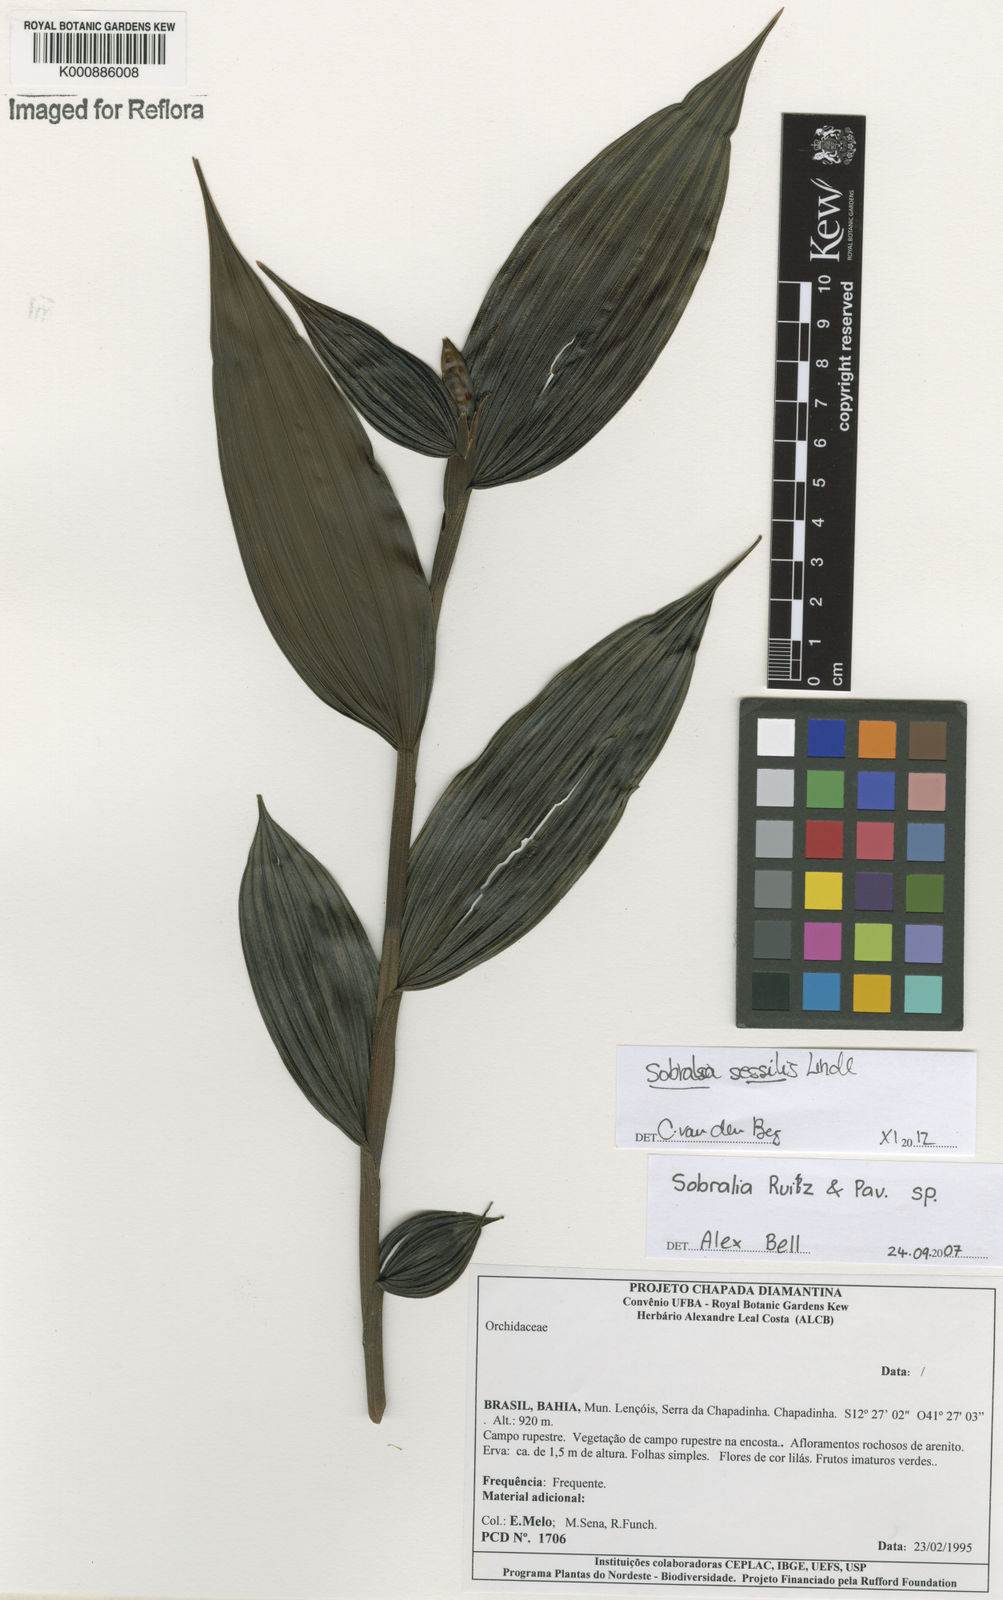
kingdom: Plantae
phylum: Tracheophyta
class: Liliopsida
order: Asparagales
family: Orchidaceae
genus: Sobralia
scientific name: Sobralia sessilis
